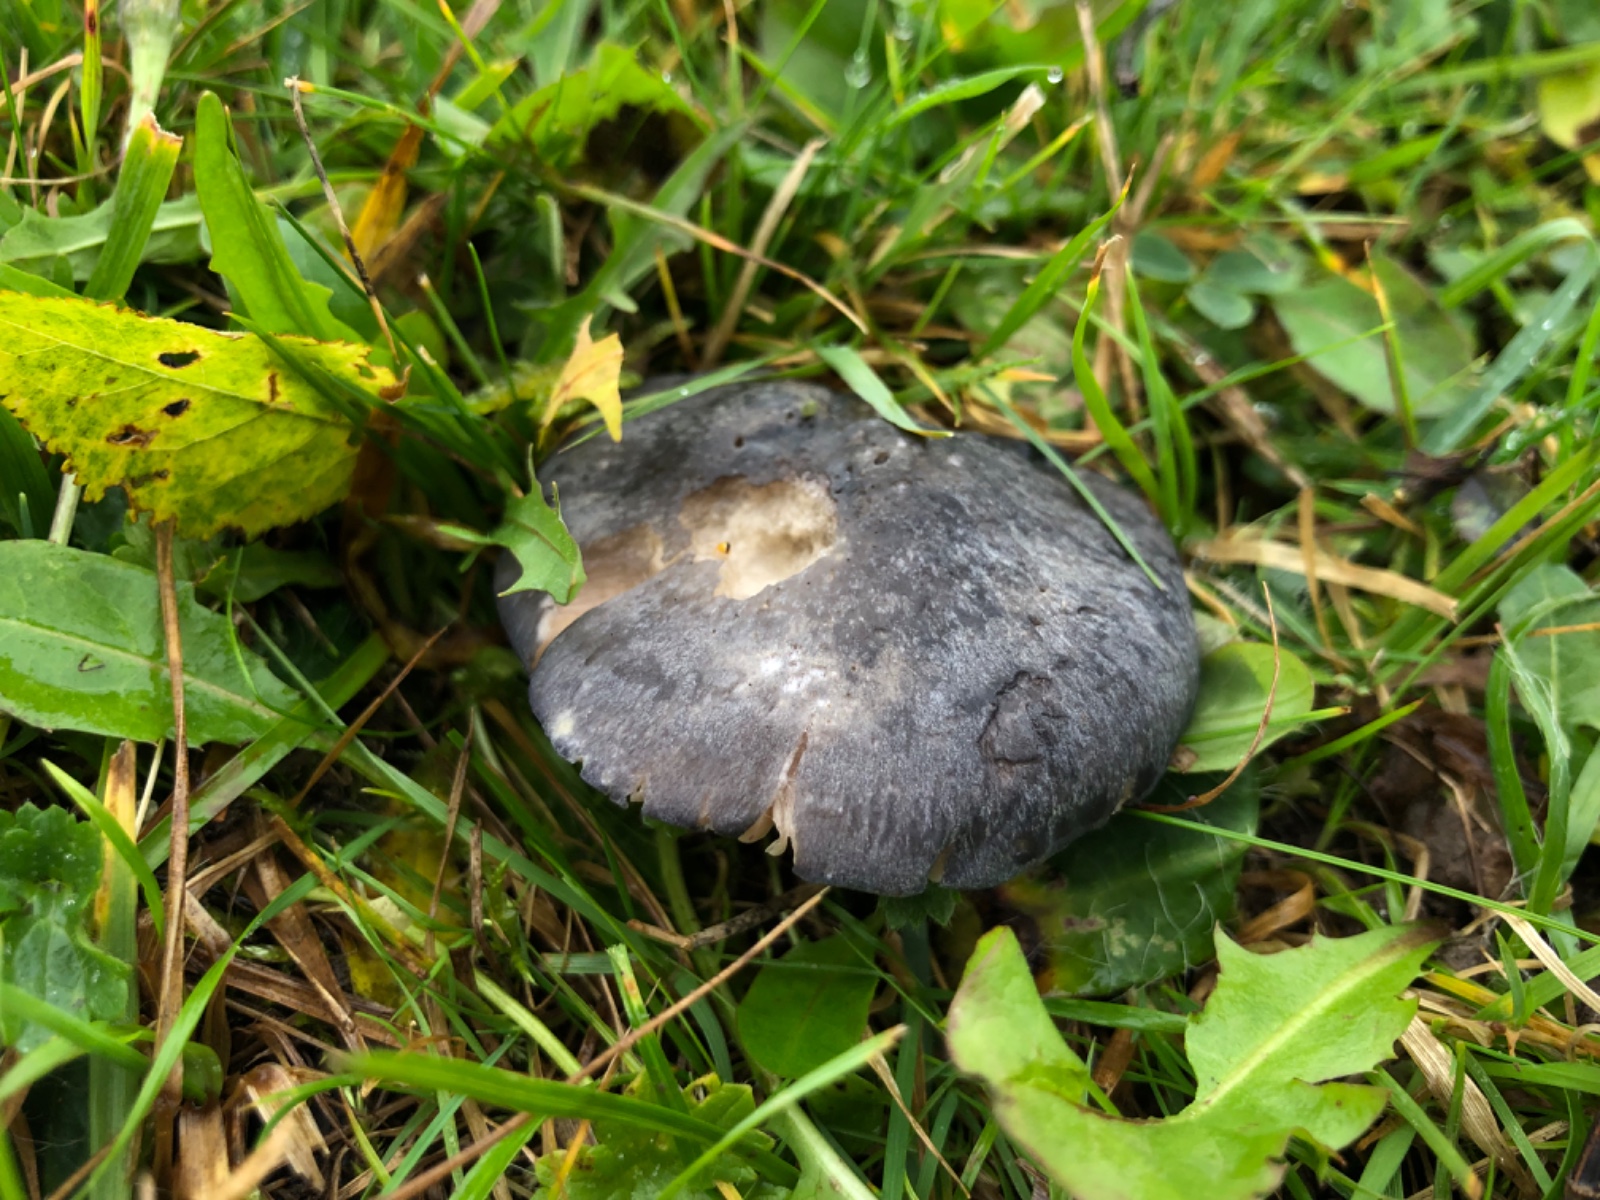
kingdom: Fungi
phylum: Basidiomycota
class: Agaricomycetes
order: Agaricales
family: Entolomataceae
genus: Entoloma
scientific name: Entoloma madidum
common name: indigo-rødblad
